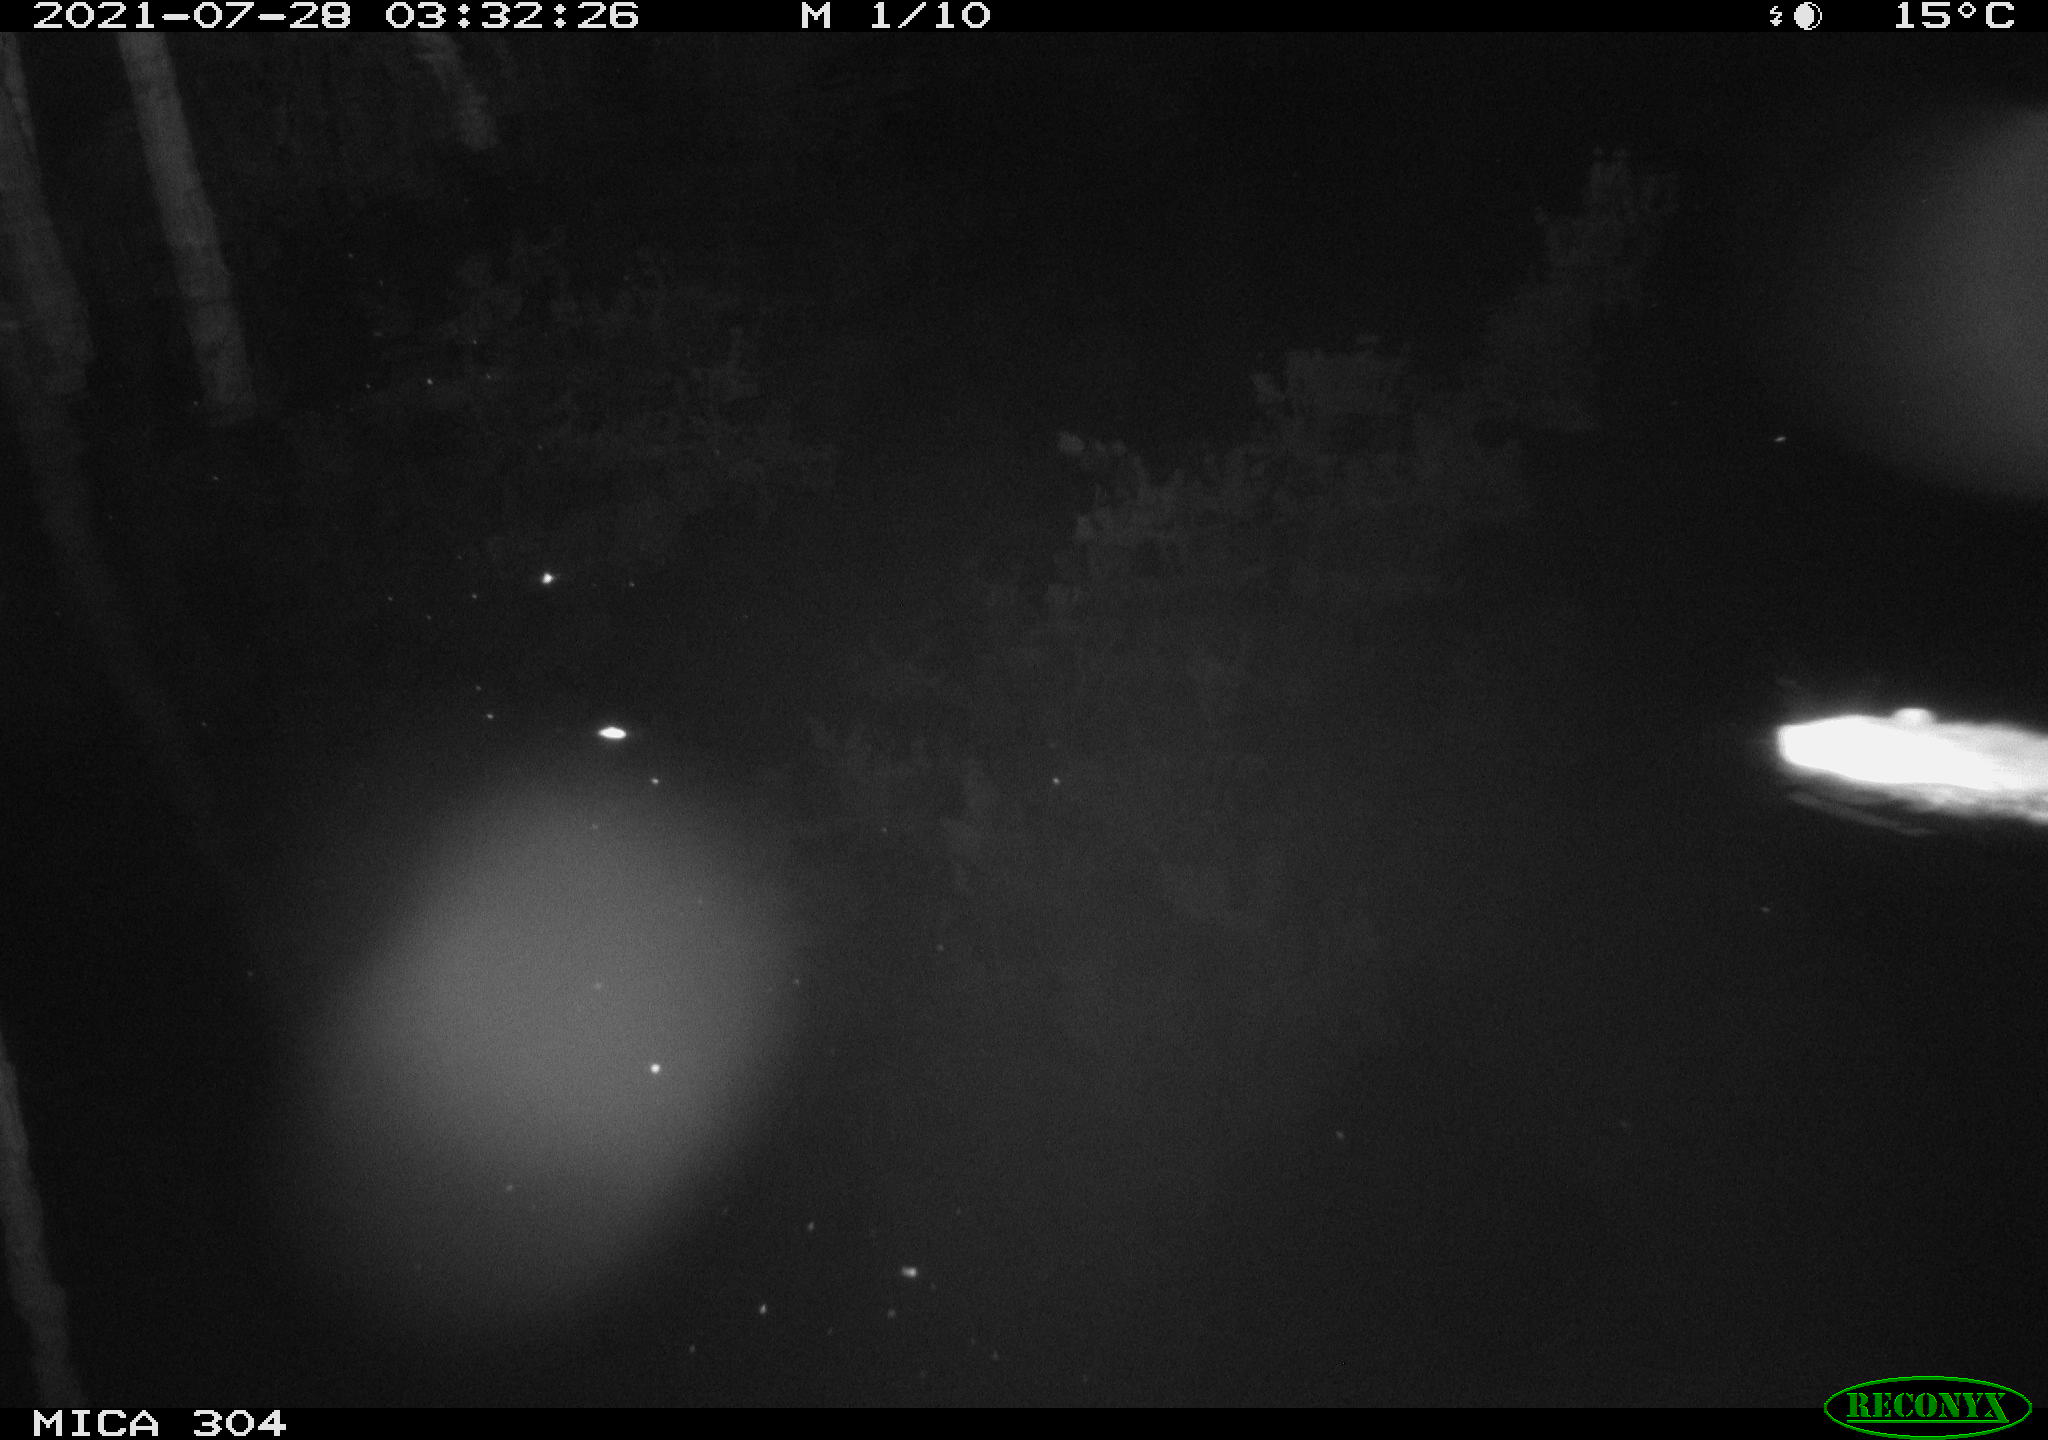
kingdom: Animalia
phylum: Chordata
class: Mammalia
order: Rodentia
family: Muridae
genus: Rattus
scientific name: Rattus norvegicus
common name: Brown rat
